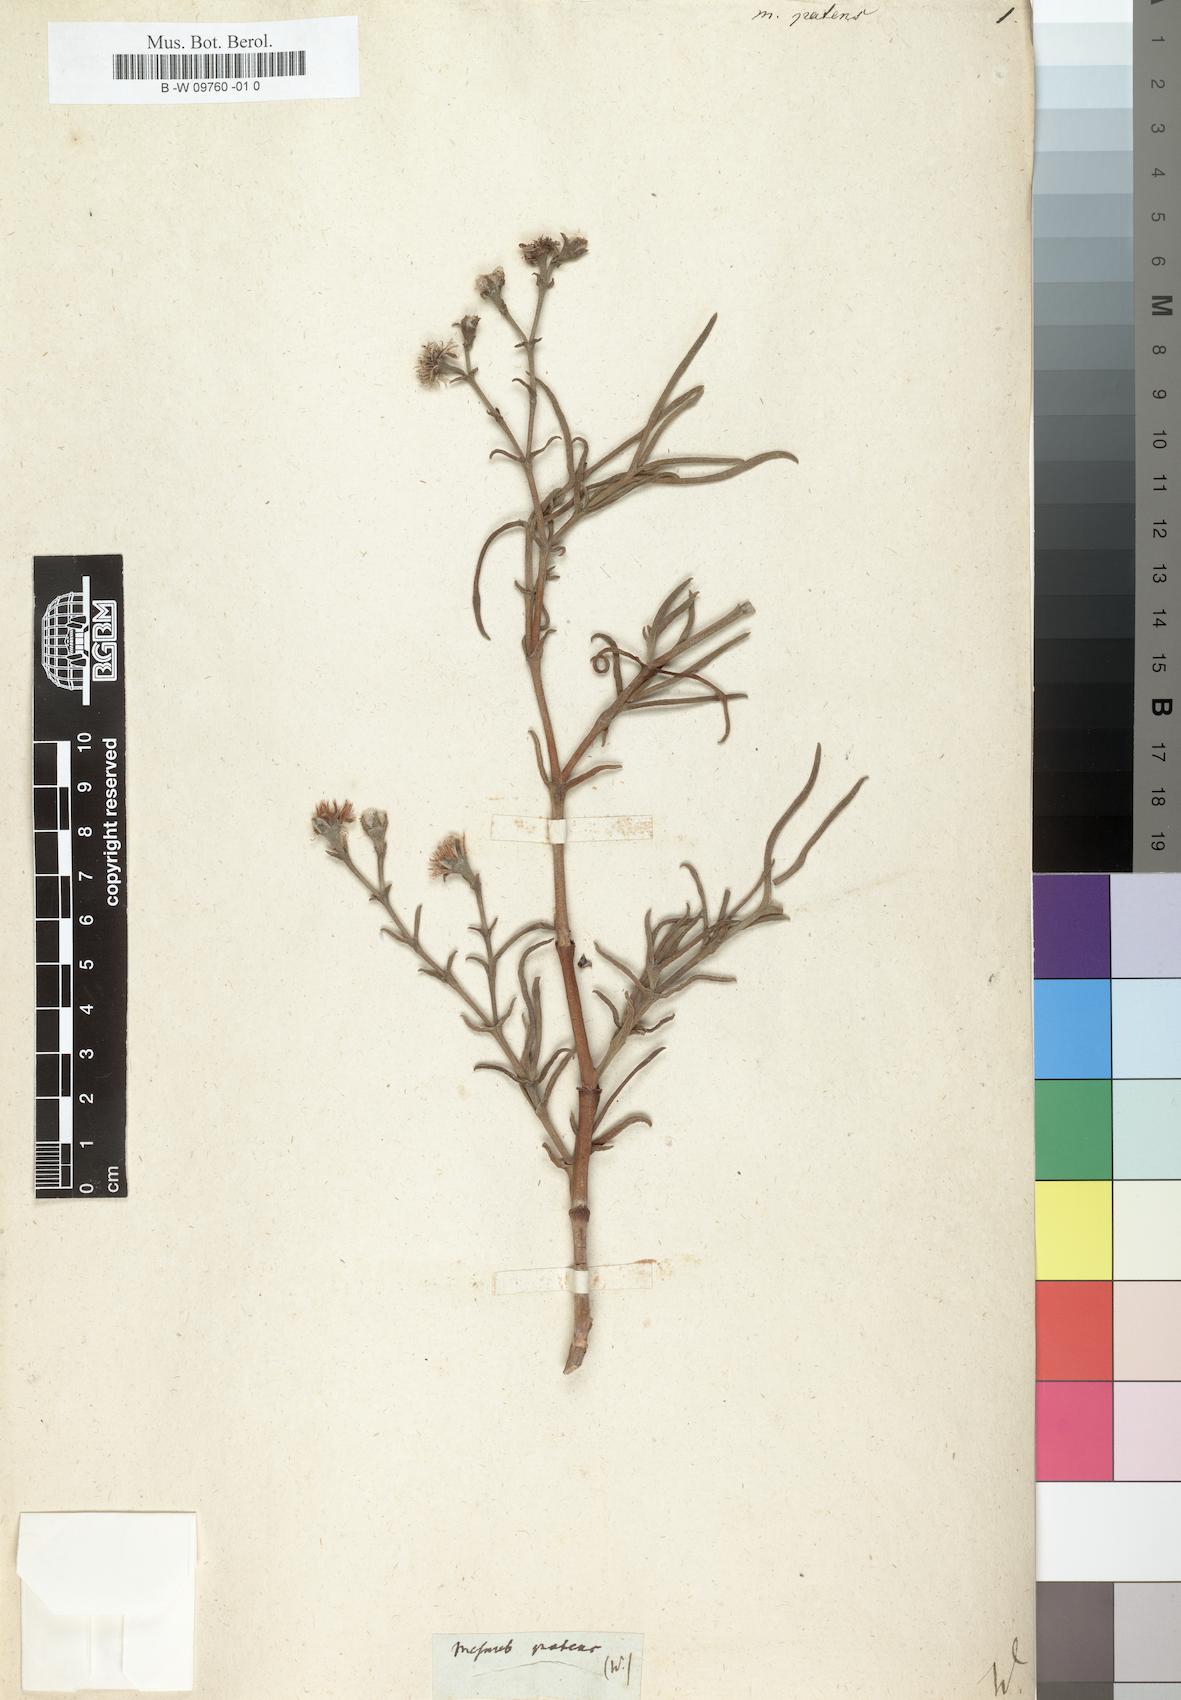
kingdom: Plantae
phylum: Tracheophyta
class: Magnoliopsida
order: Caryophyllales
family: Aizoaceae
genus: Ruschia
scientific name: Ruschia multiflora
